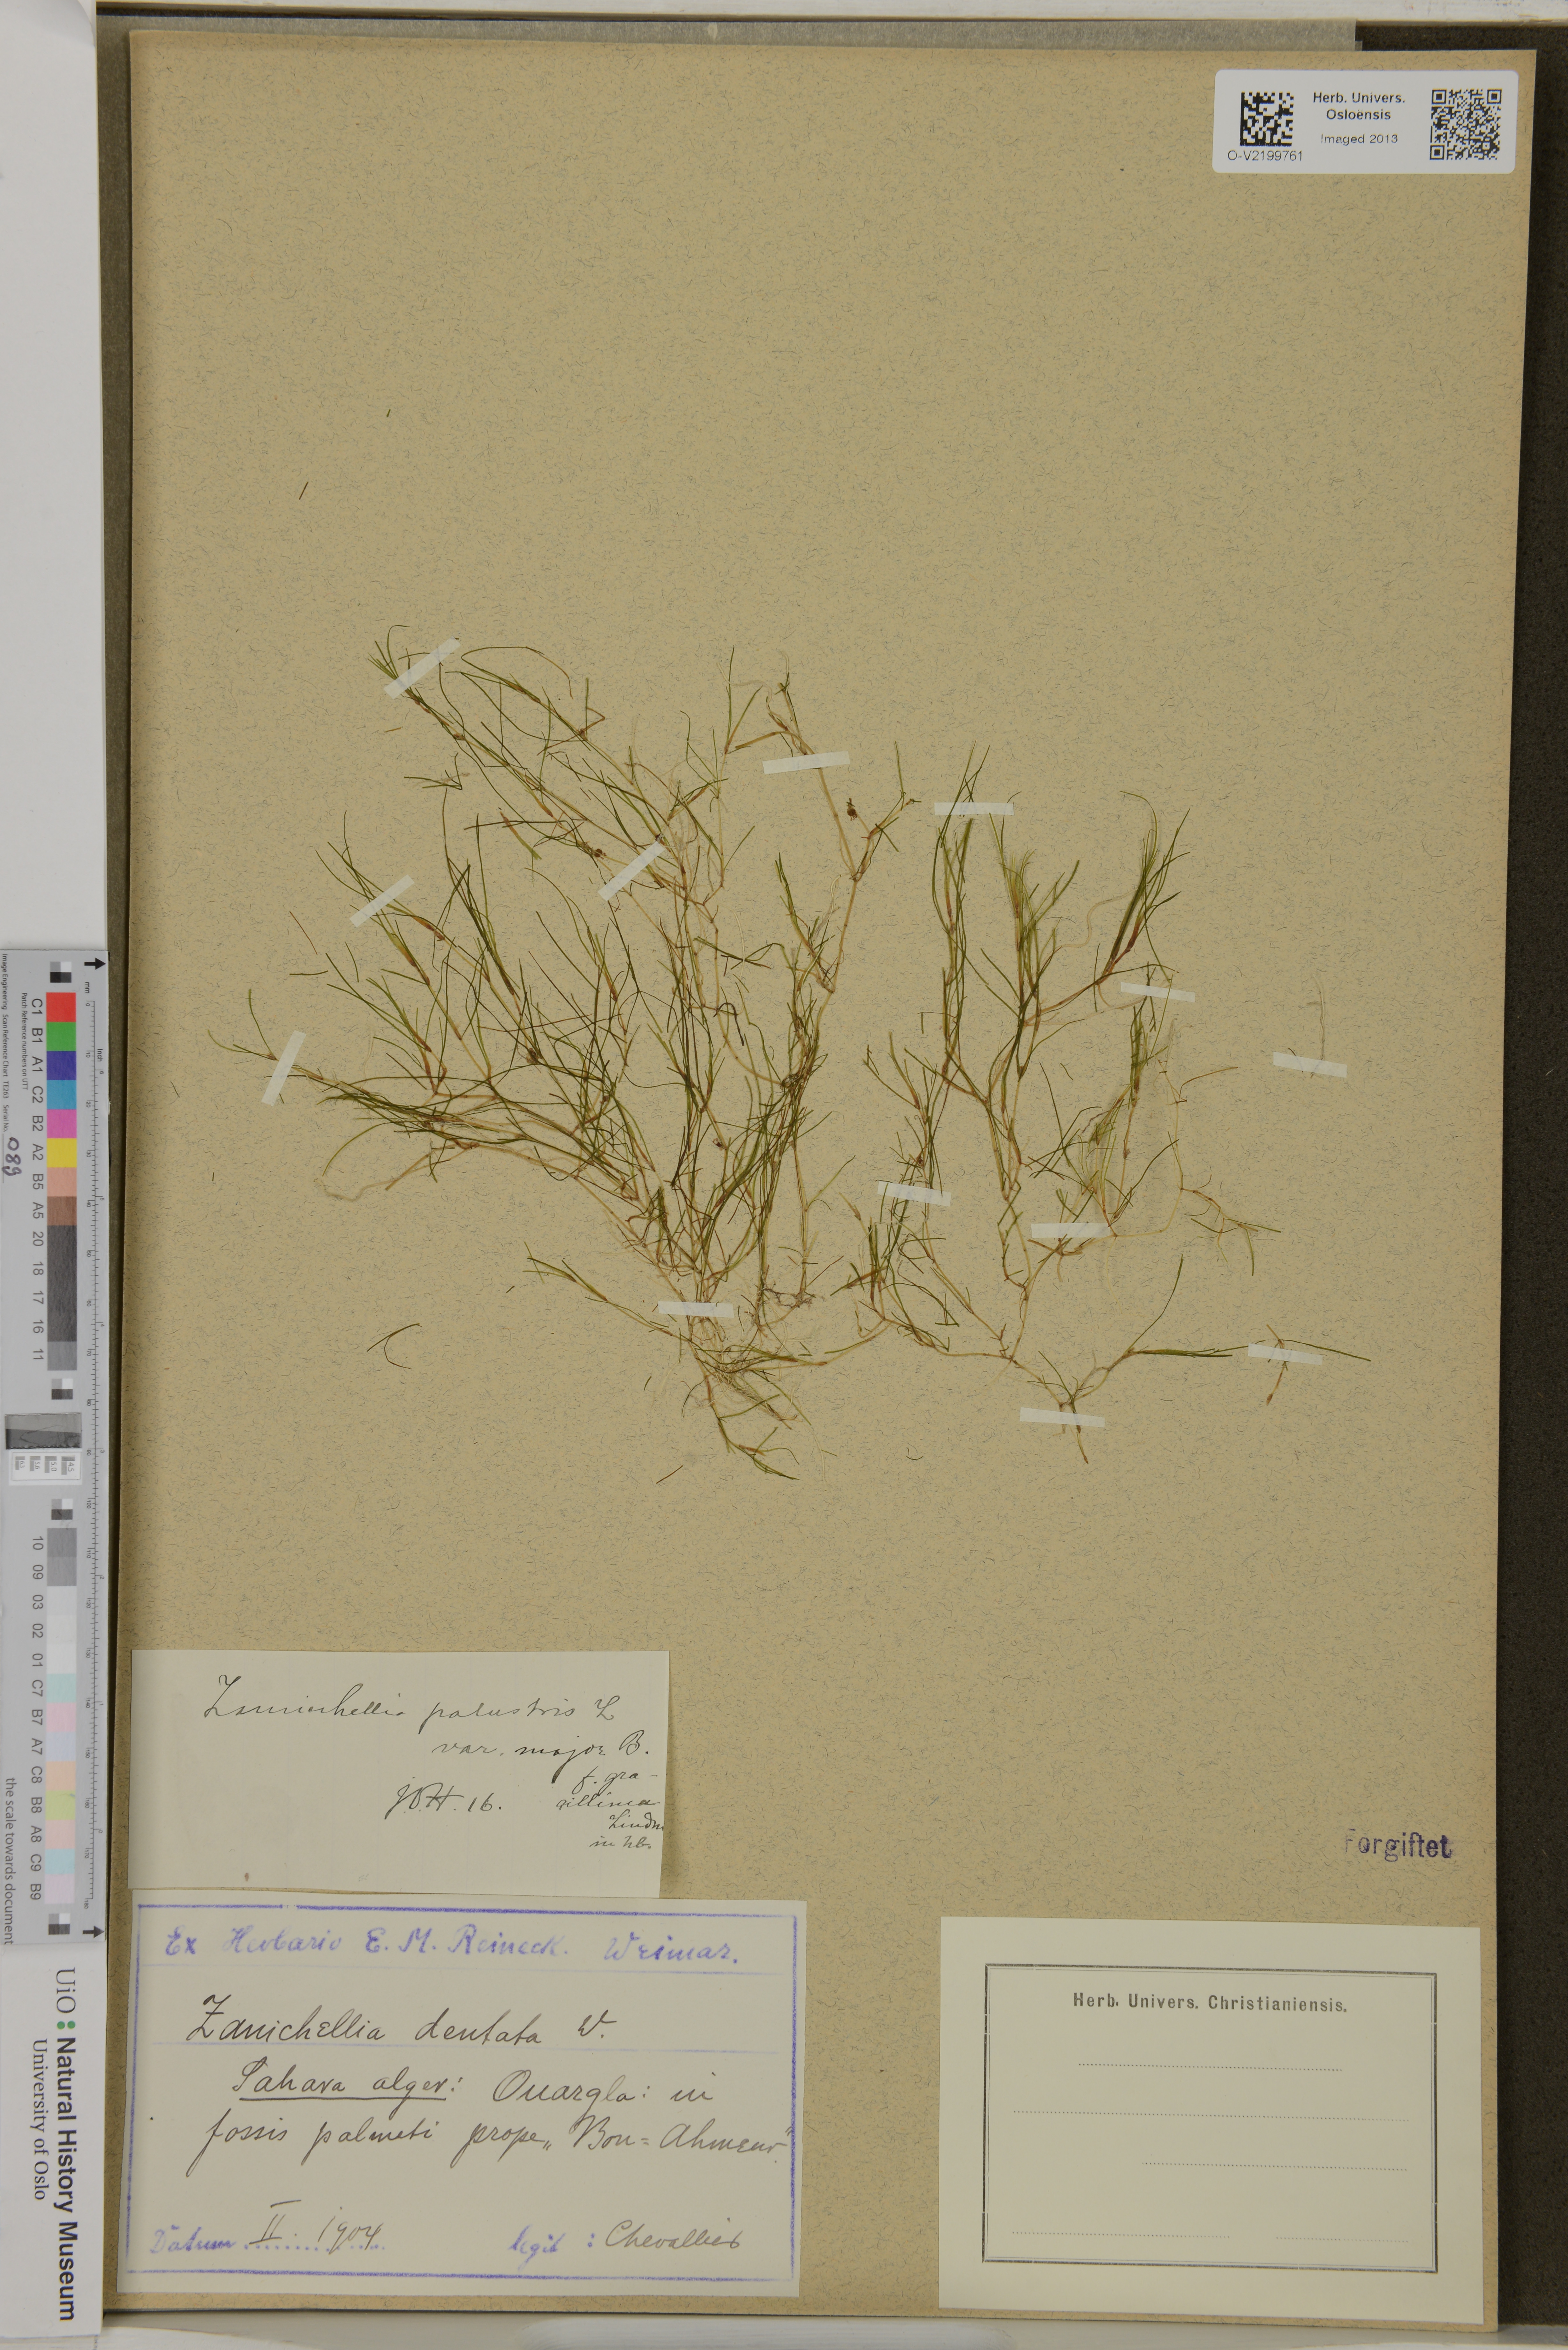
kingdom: Plantae
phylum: Tracheophyta
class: Liliopsida
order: Alismatales
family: Potamogetonaceae
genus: Zannichellia
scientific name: Zannichellia palustris
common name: Horned pondweed
